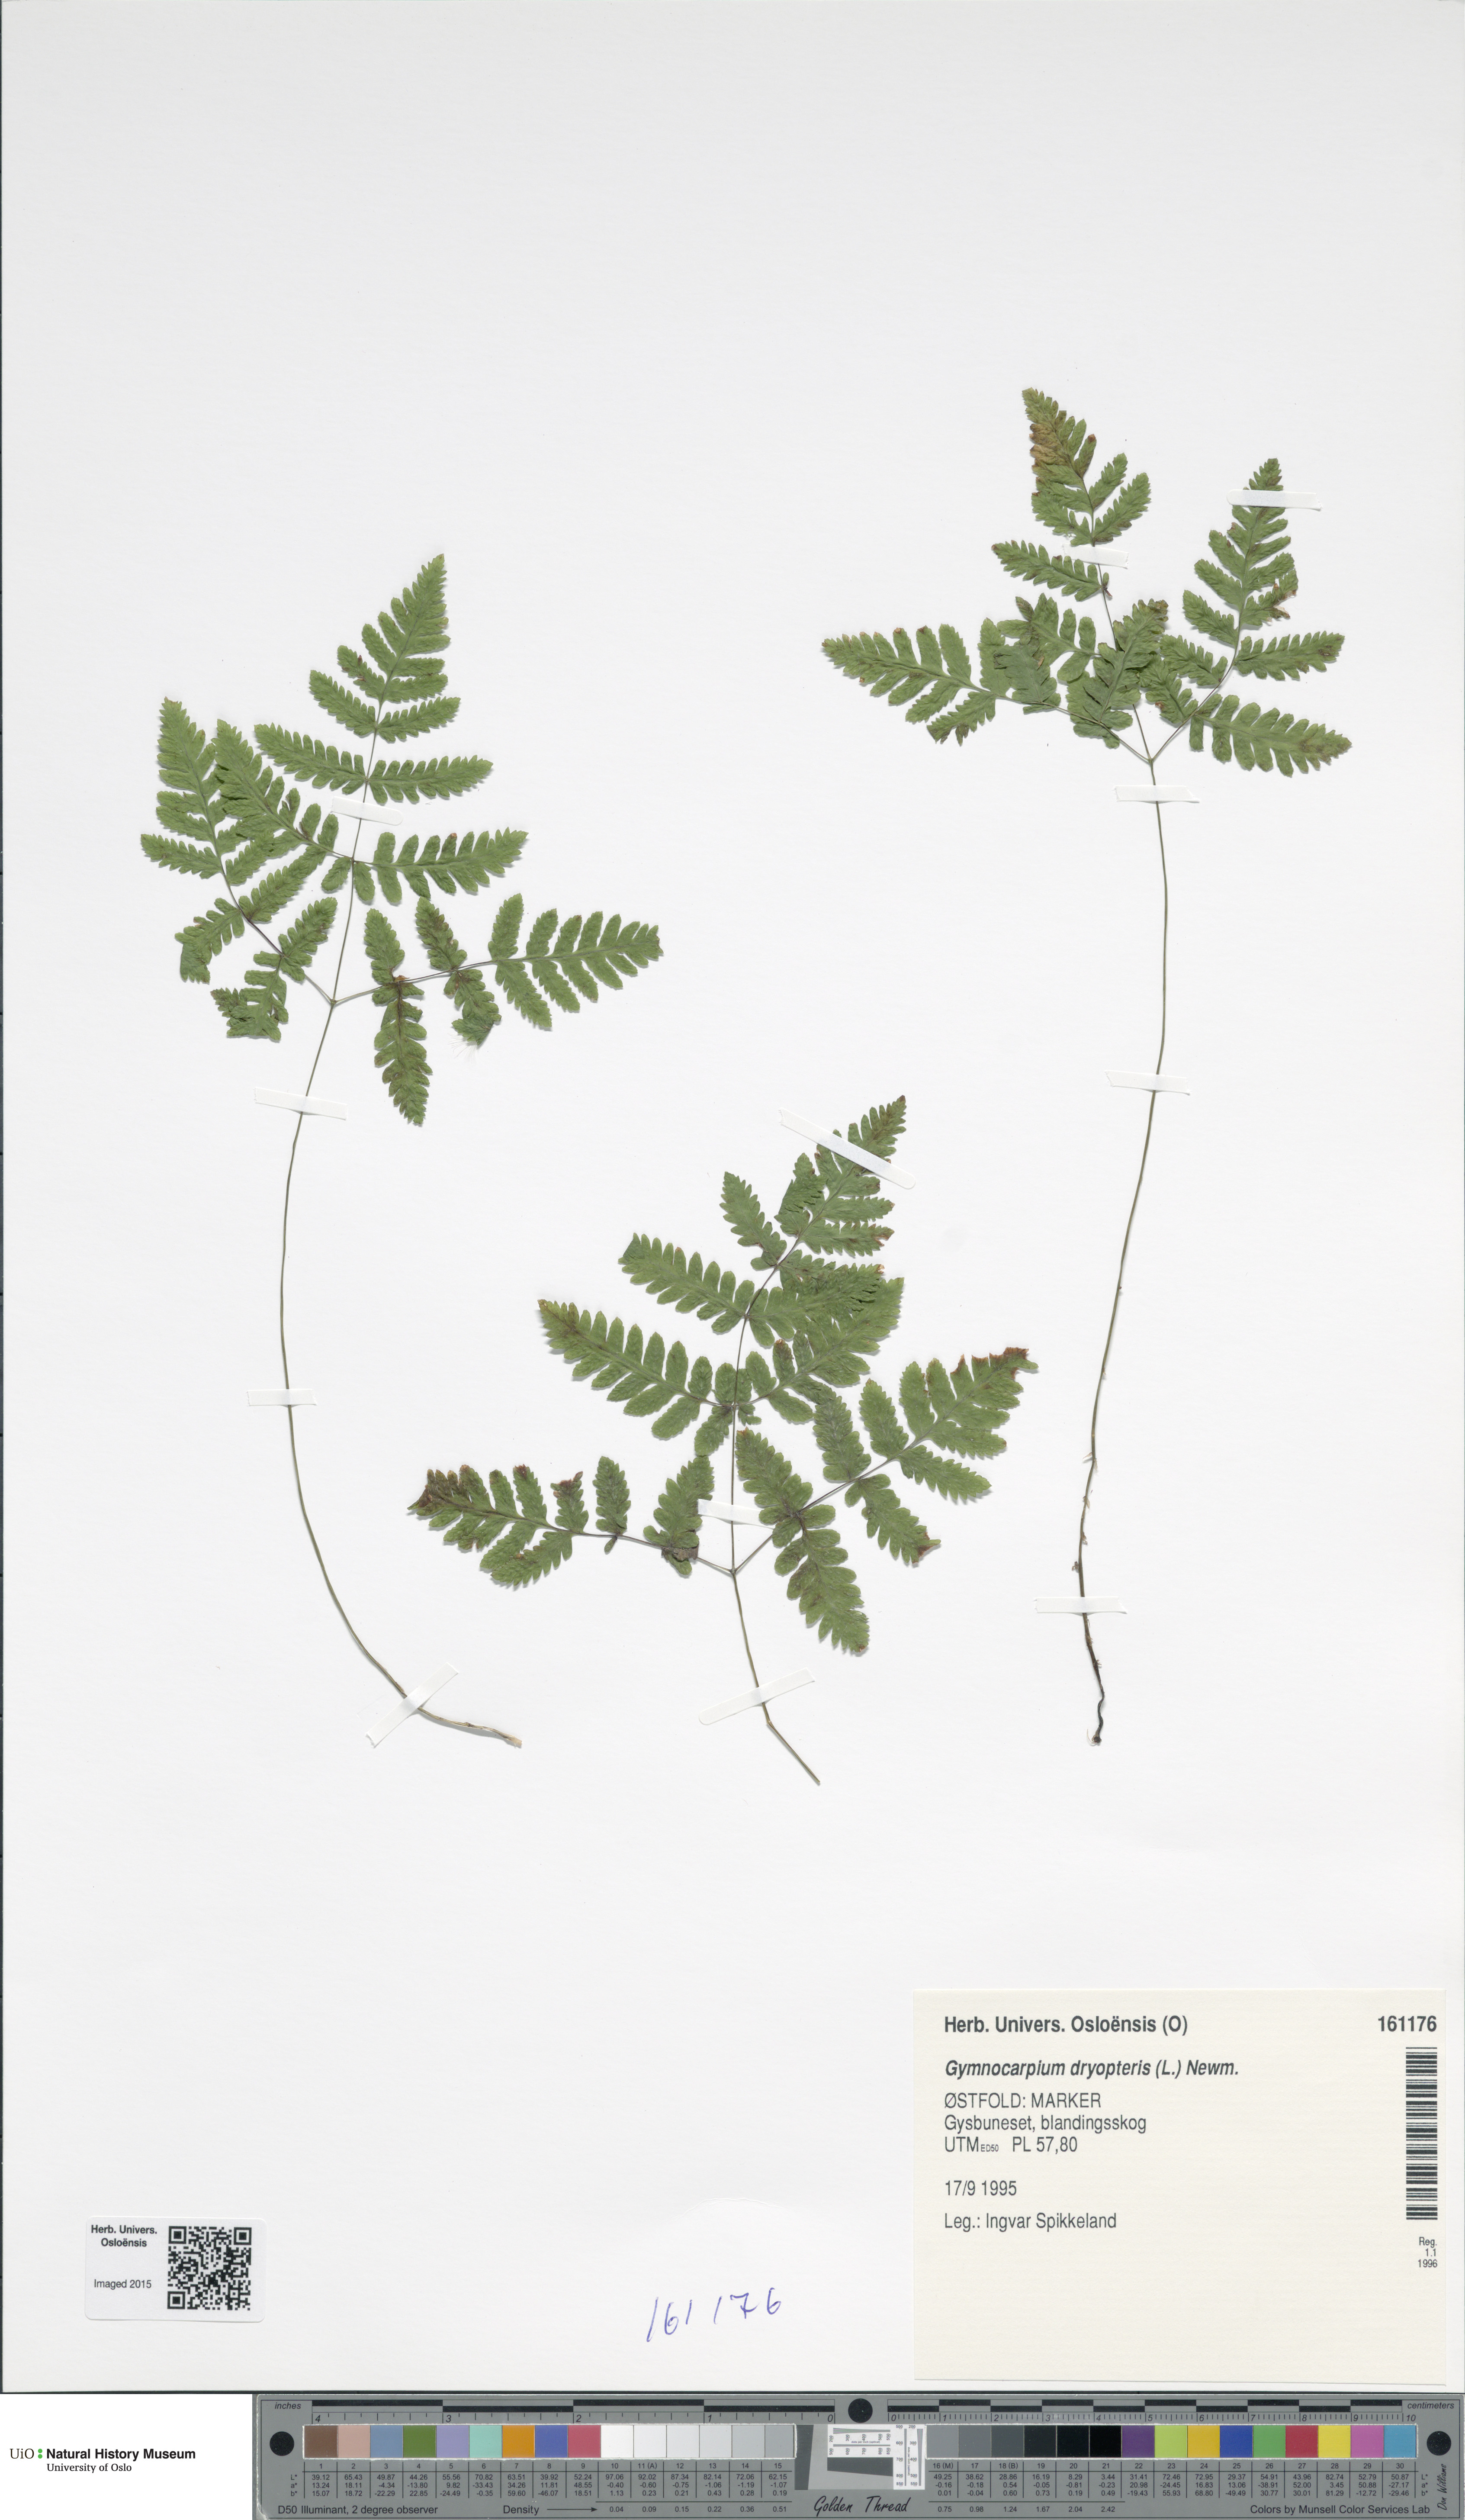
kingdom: Plantae
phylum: Tracheophyta
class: Polypodiopsida
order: Polypodiales
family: Cystopteridaceae
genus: Gymnocarpium
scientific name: Gymnocarpium dryopteris
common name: Oak fern
